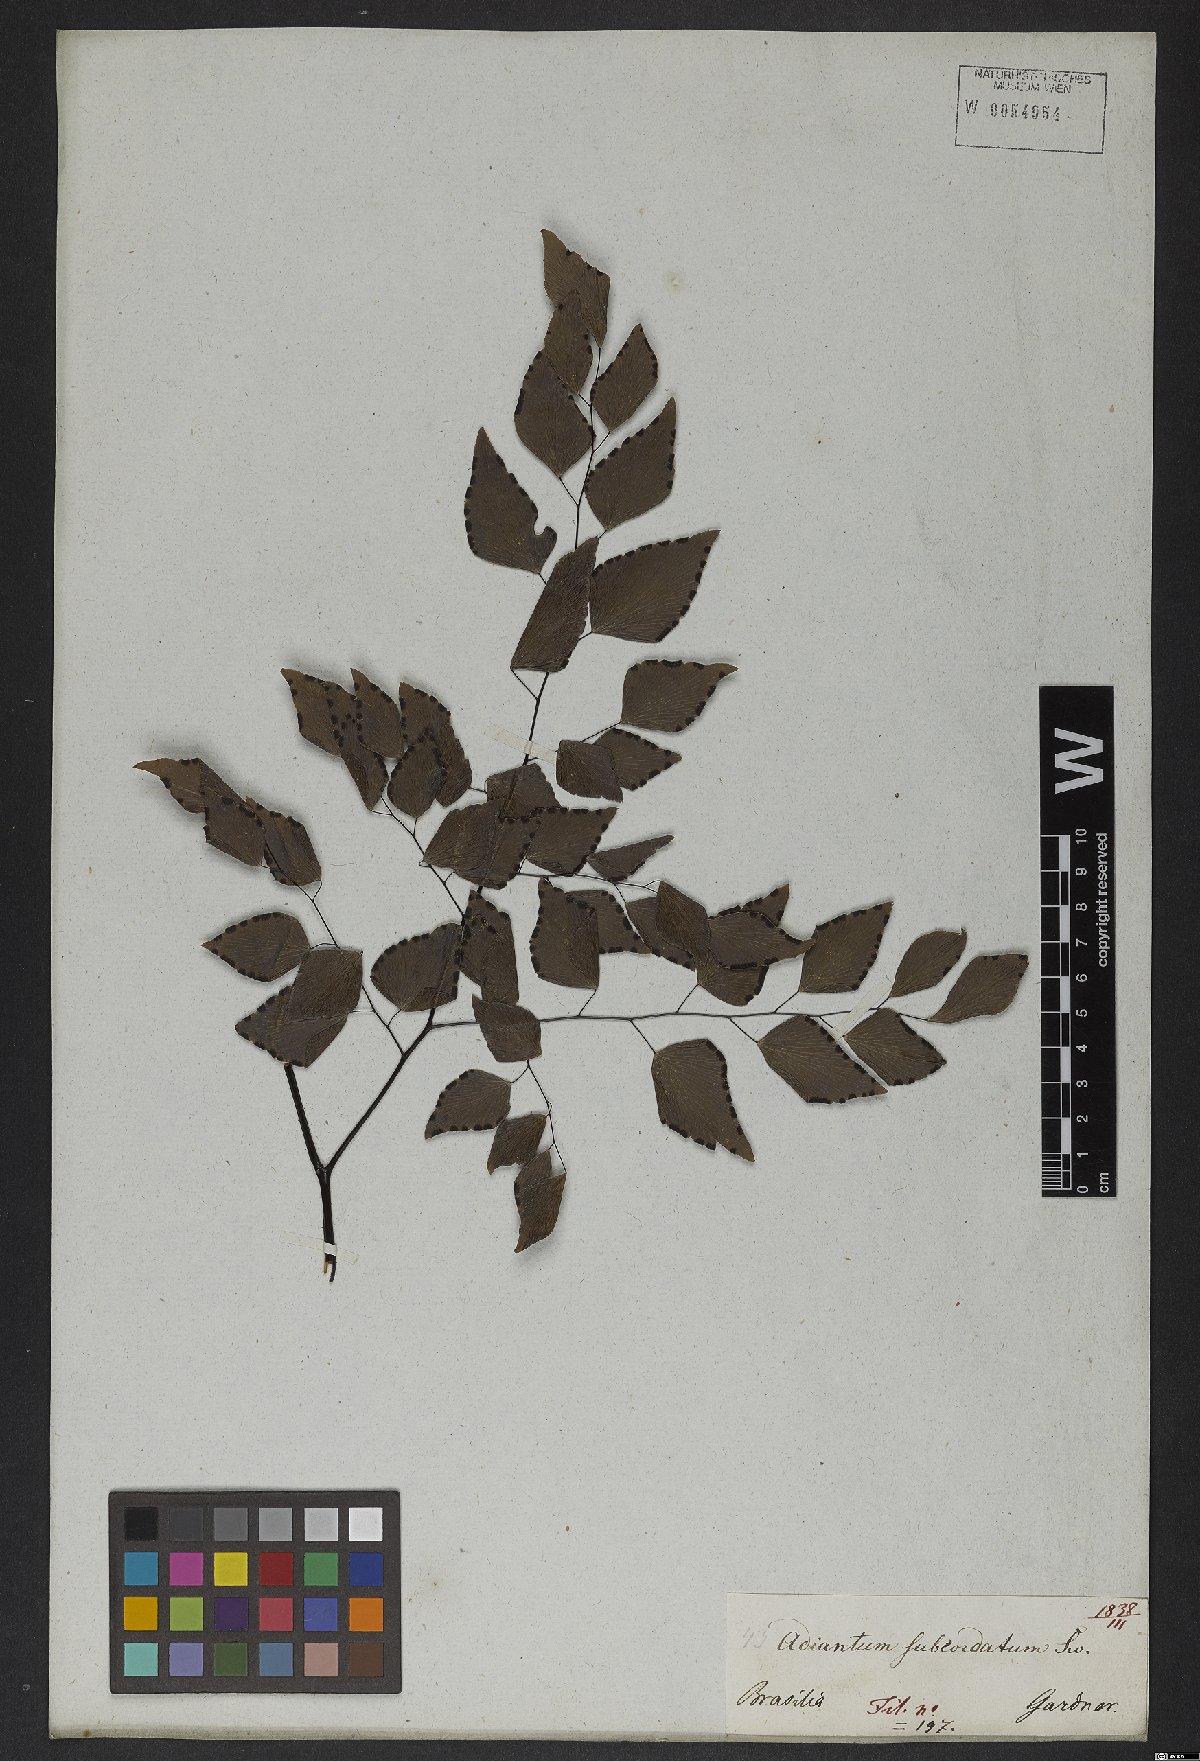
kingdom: Plantae
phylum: Tracheophyta
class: Polypodiopsida
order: Polypodiales
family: Pteridaceae
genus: Adiantum
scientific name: Adiantum subcordatum
